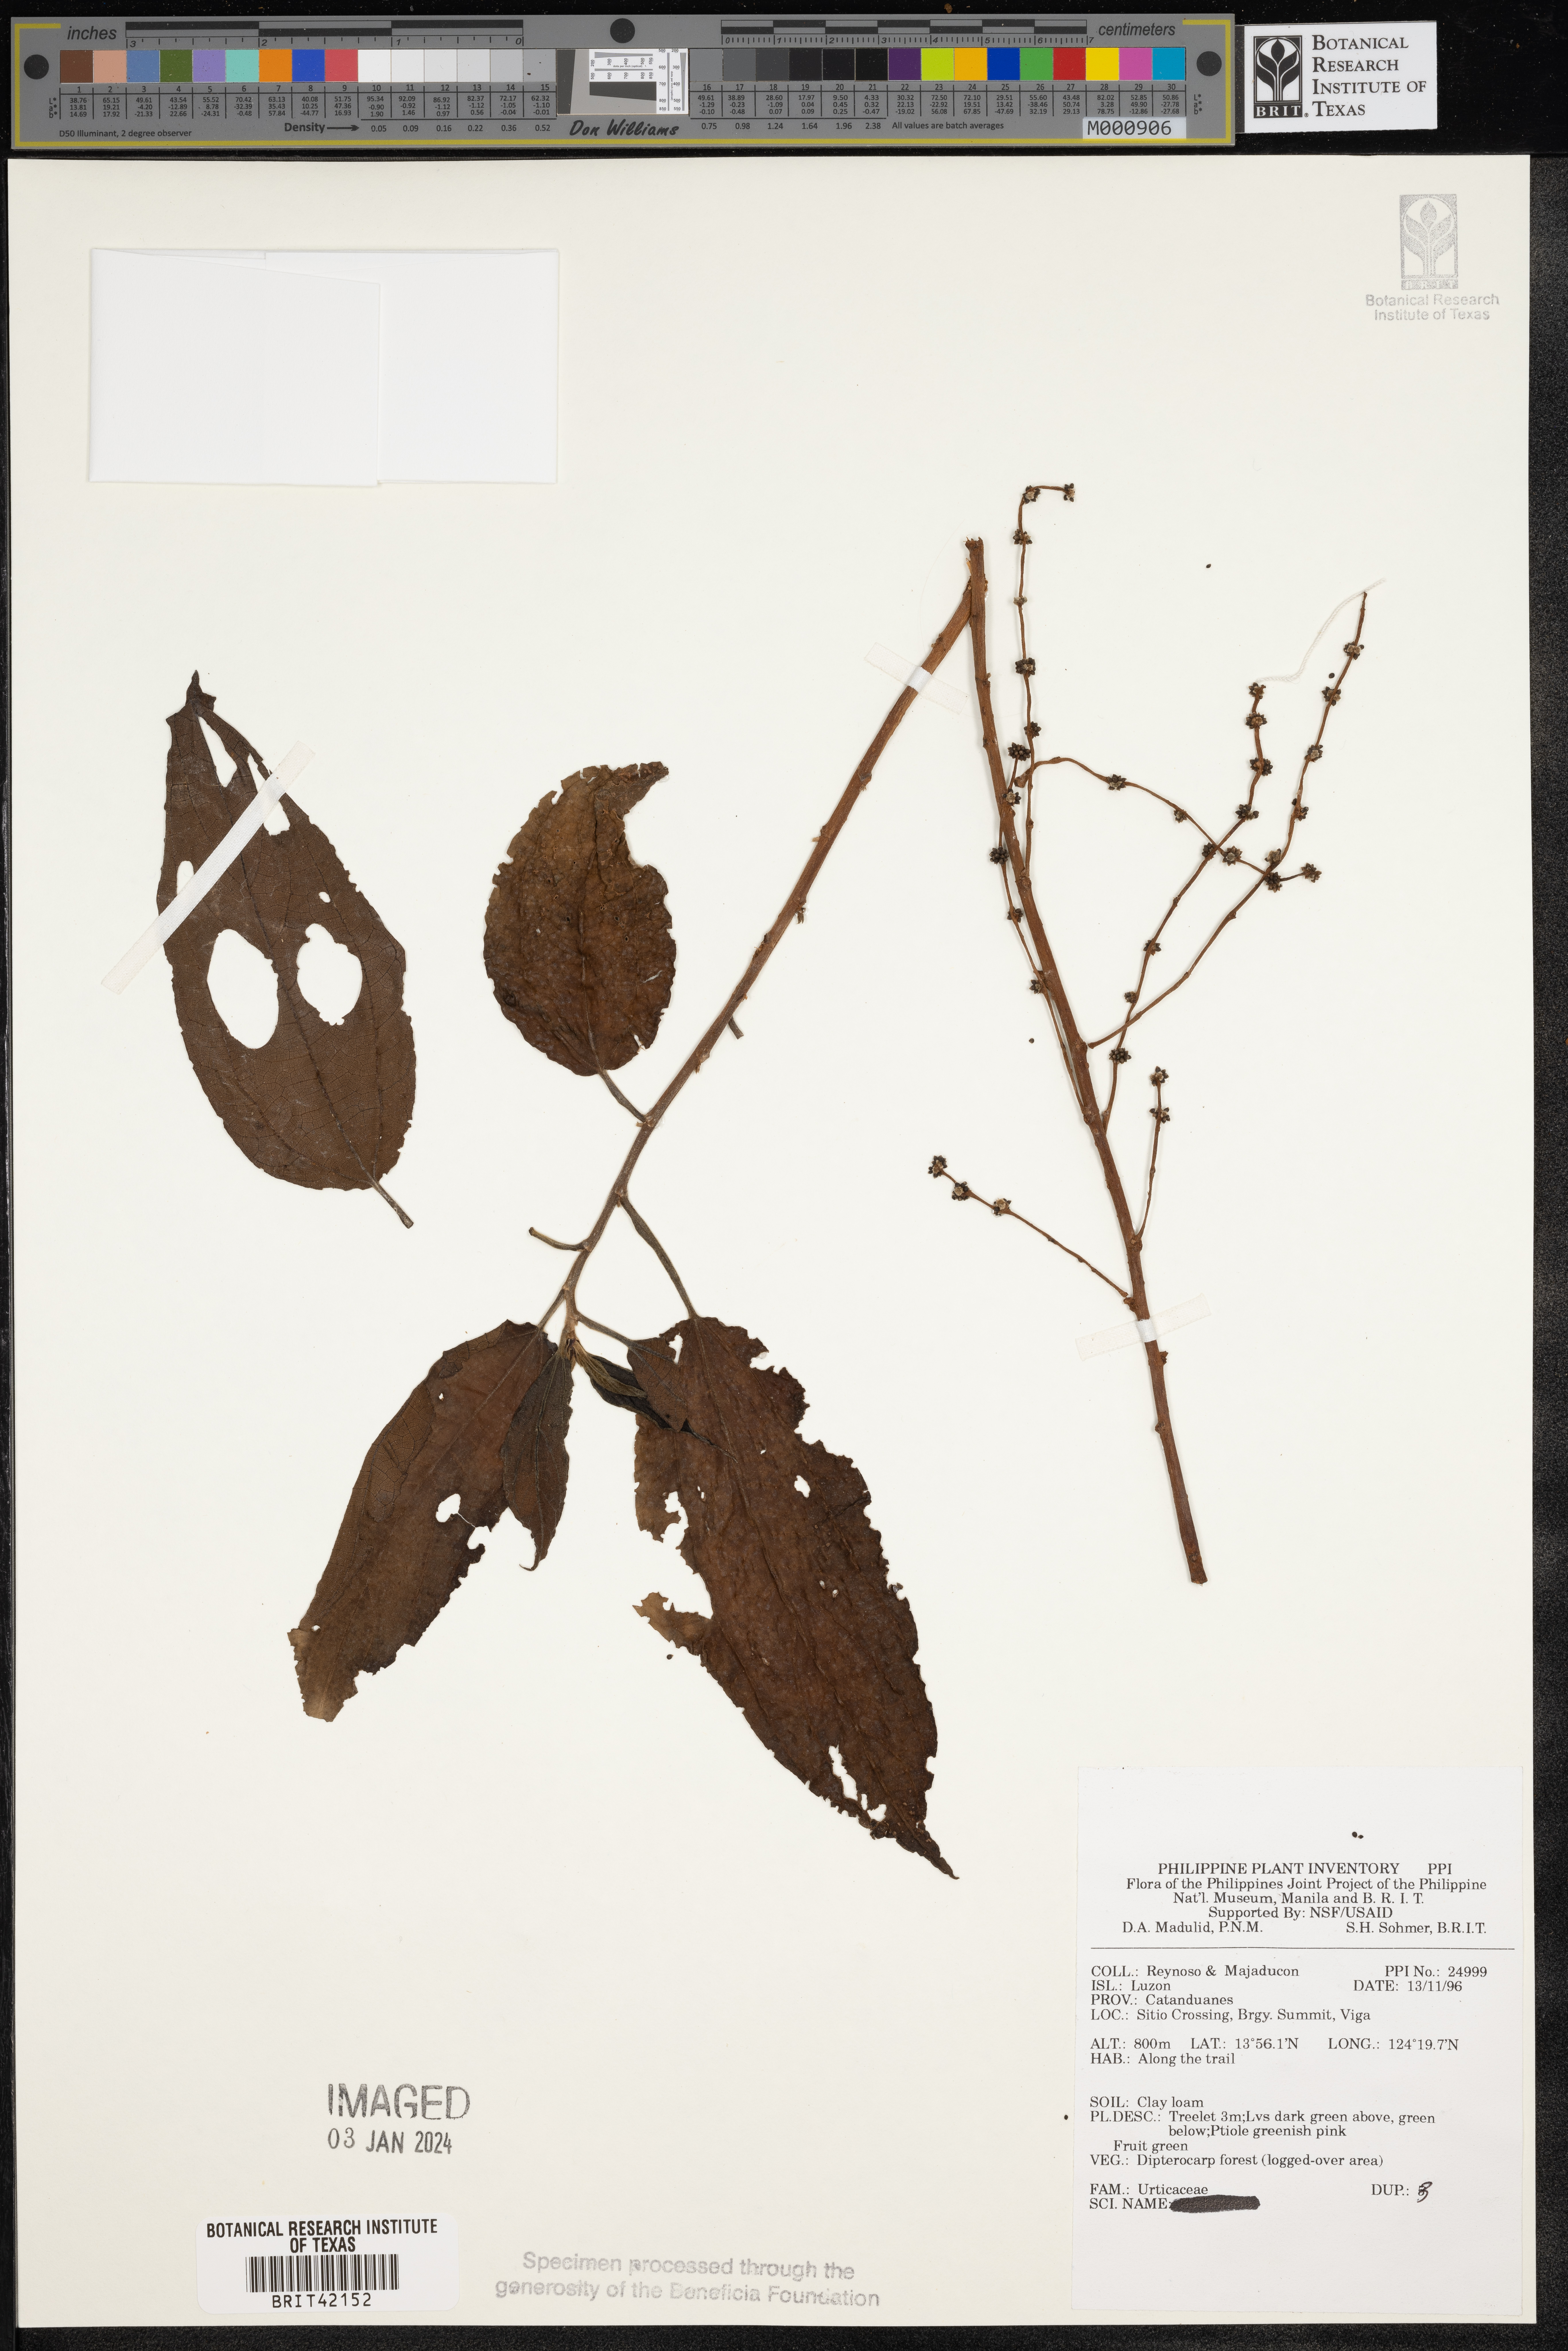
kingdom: Plantae
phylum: Tracheophyta
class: Magnoliopsida
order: Rosales
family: Urticaceae
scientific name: Urticaceae
